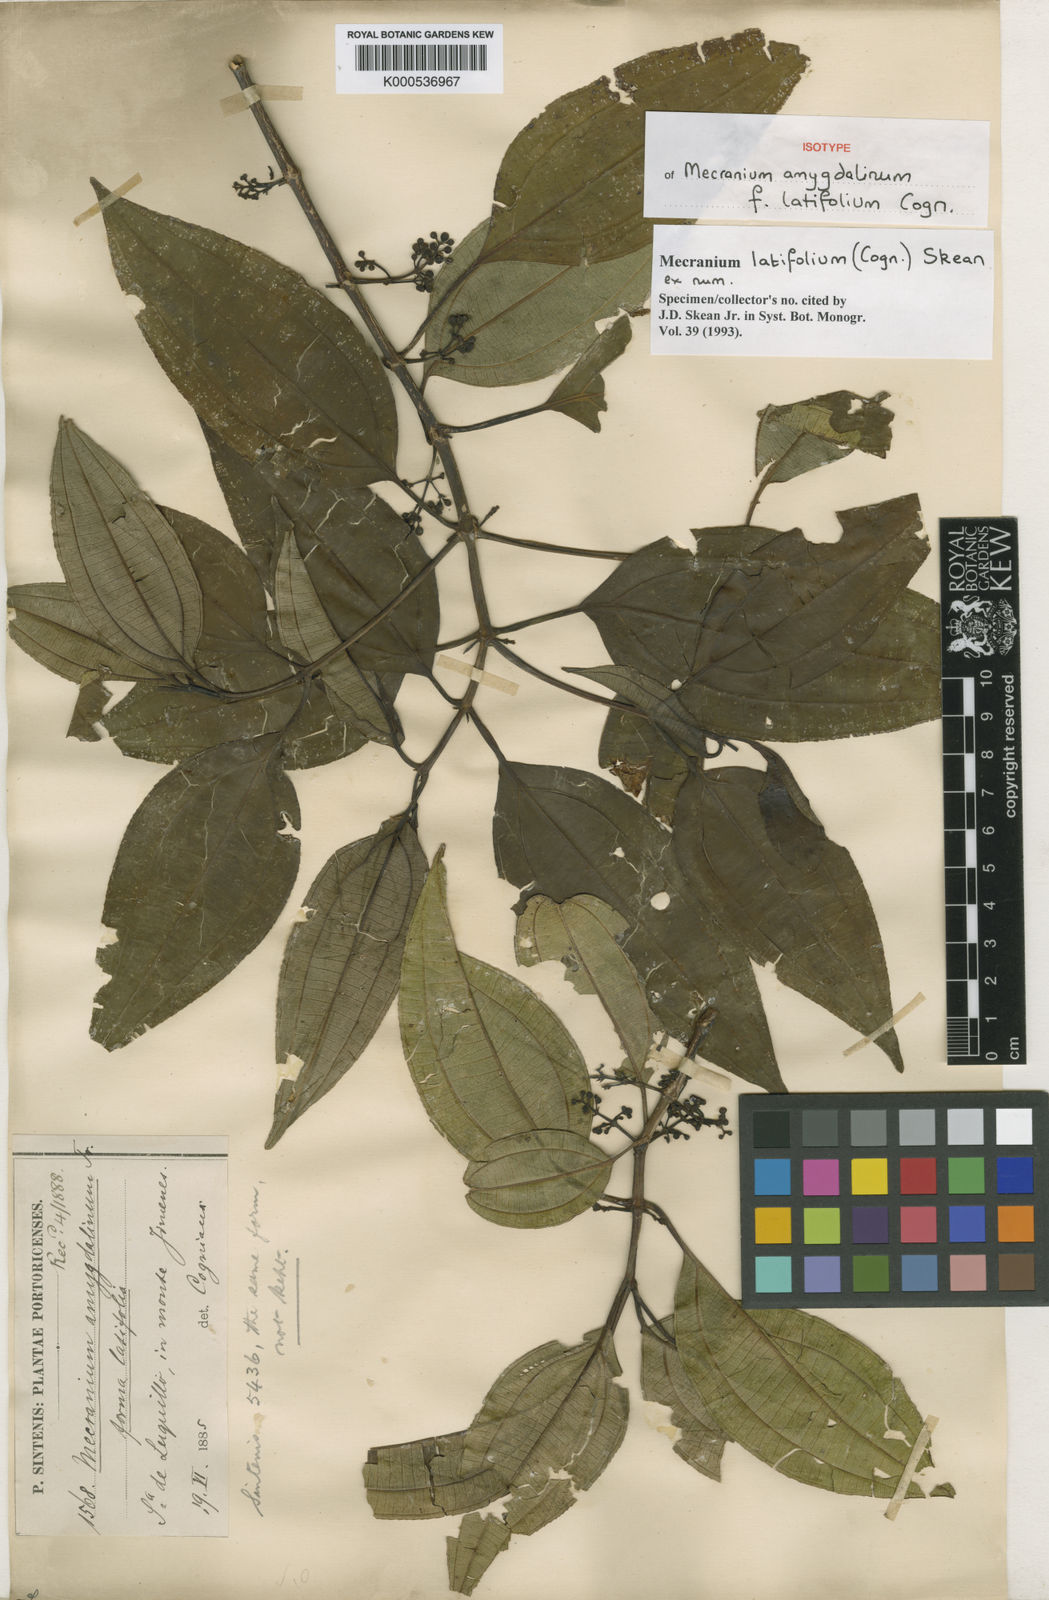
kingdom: Plantae
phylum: Tracheophyta
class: Magnoliopsida
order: Myrtales
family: Melastomataceae
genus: Miconia
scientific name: Miconia borinquensis
